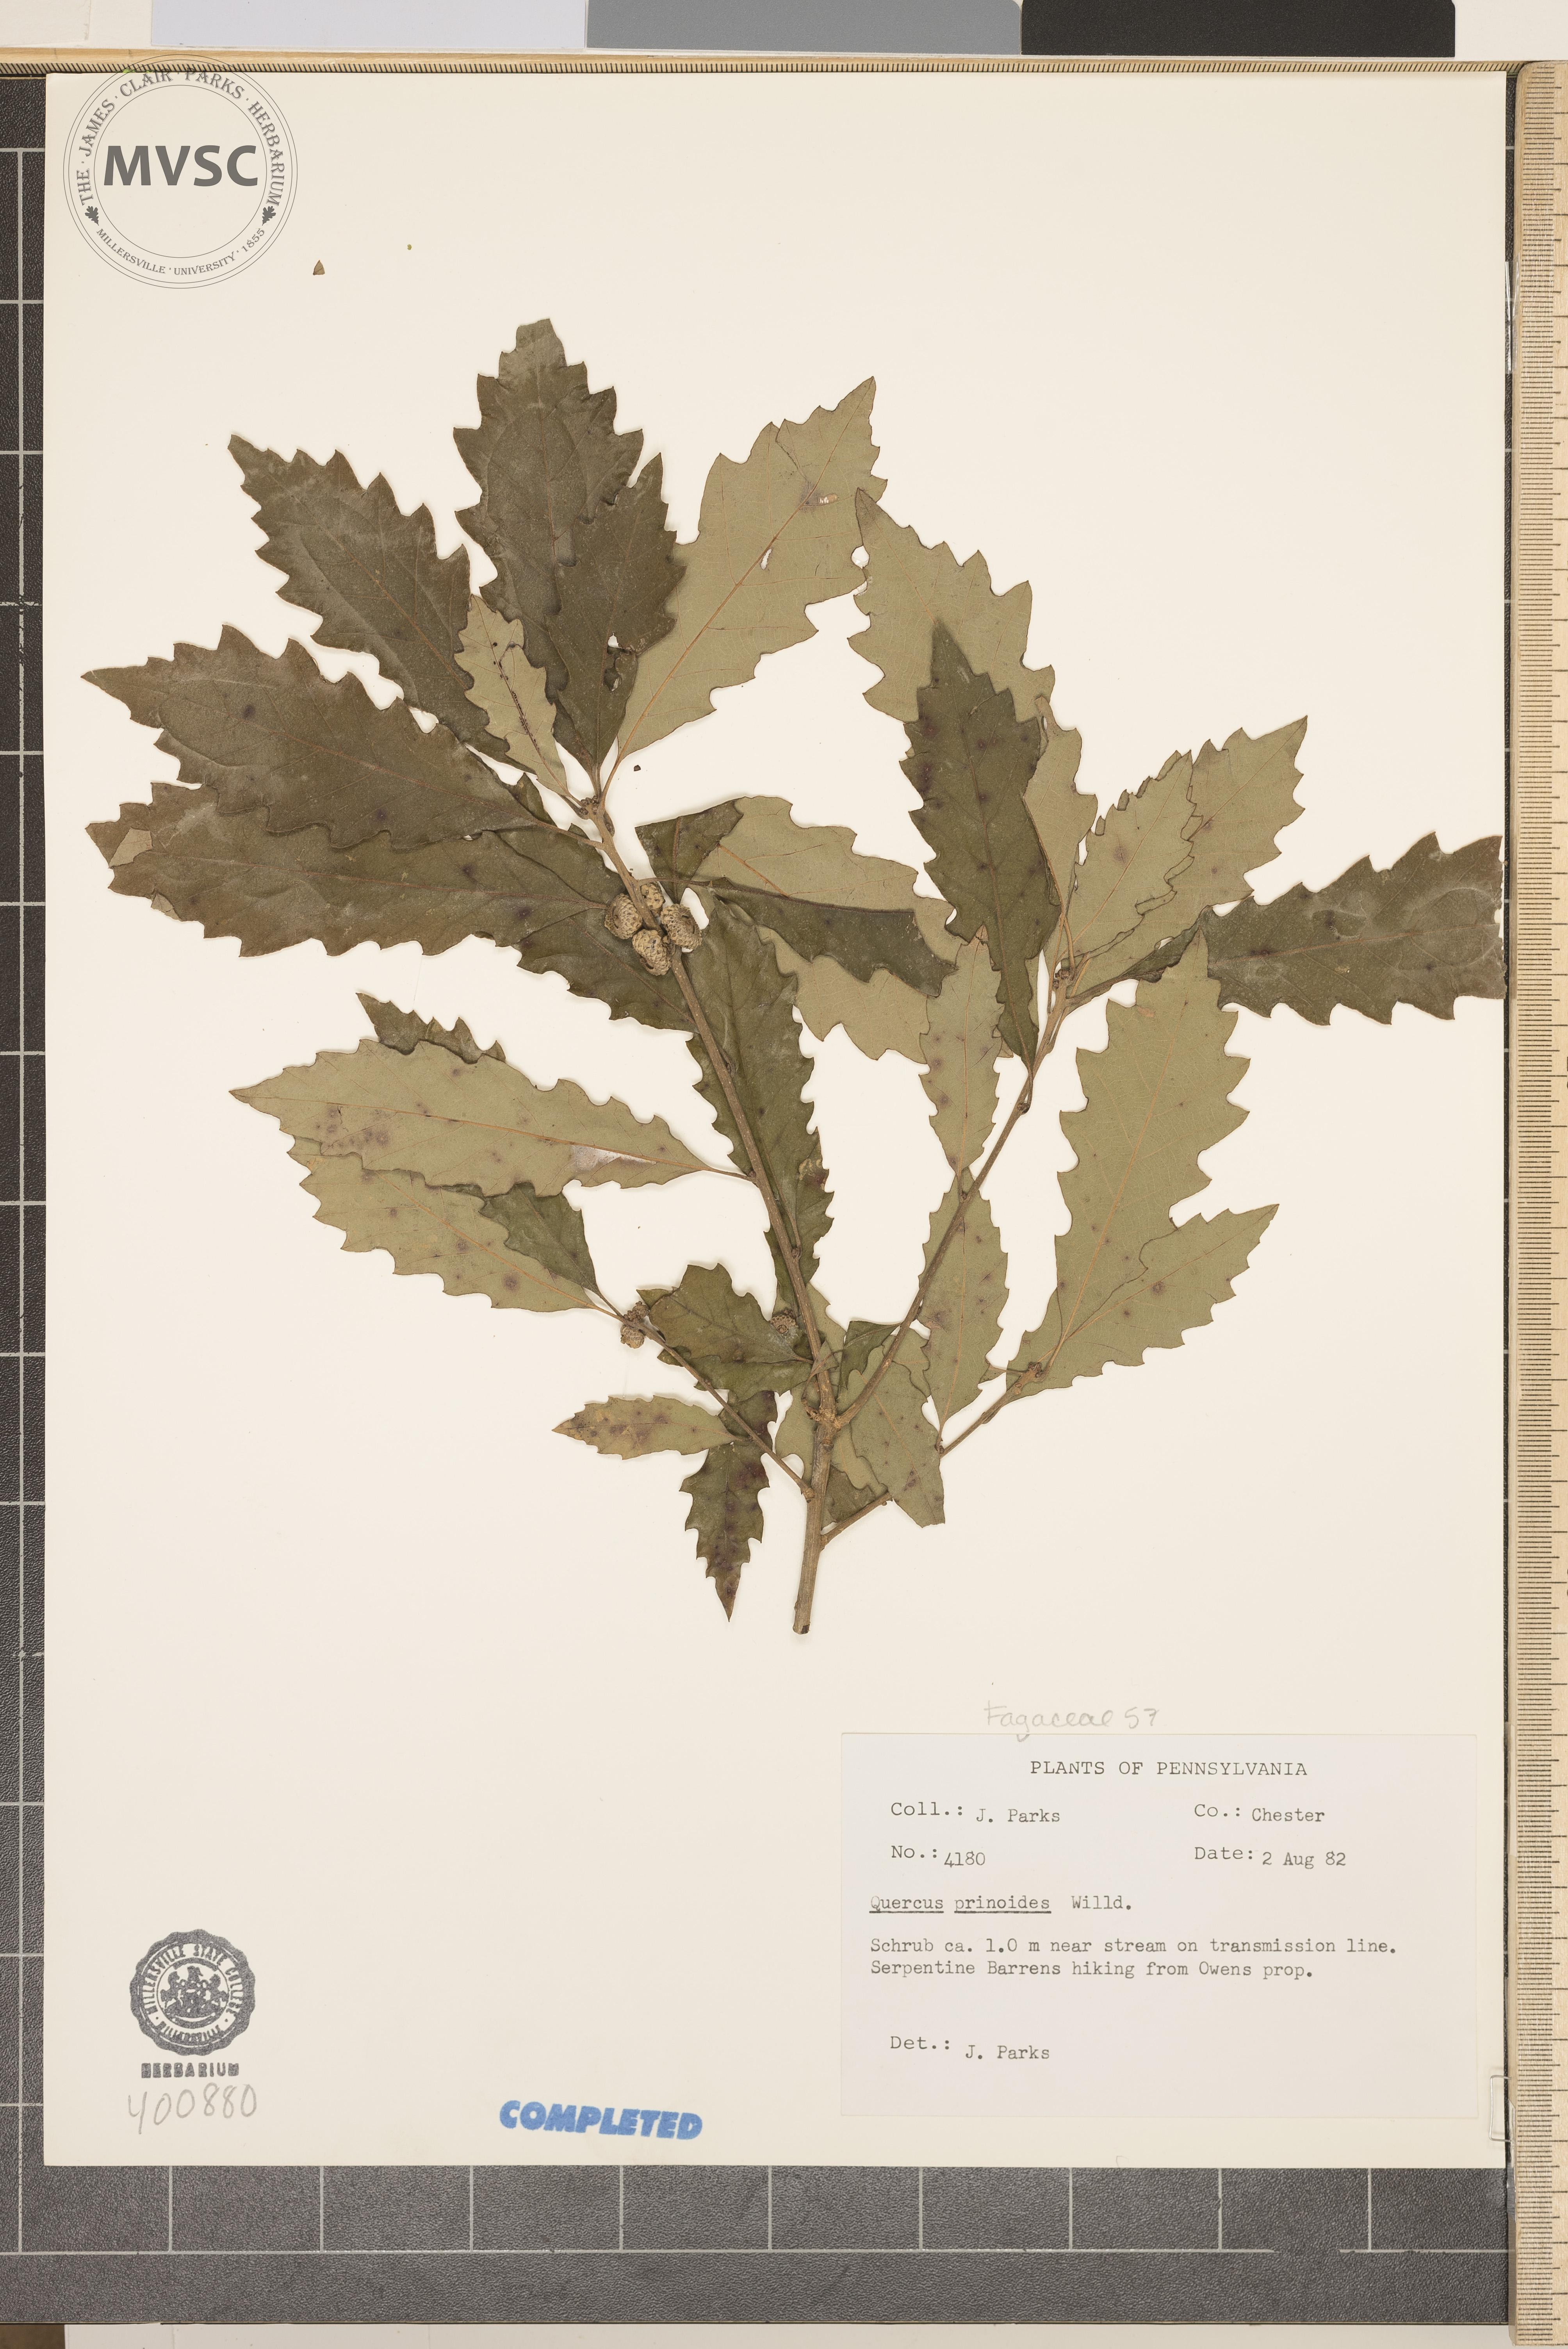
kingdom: Plantae
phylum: Tracheophyta
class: Magnoliopsida
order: Fagales
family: Fagaceae
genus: Quercus
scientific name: Quercus prinoides
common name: dwarf chestnut oak
